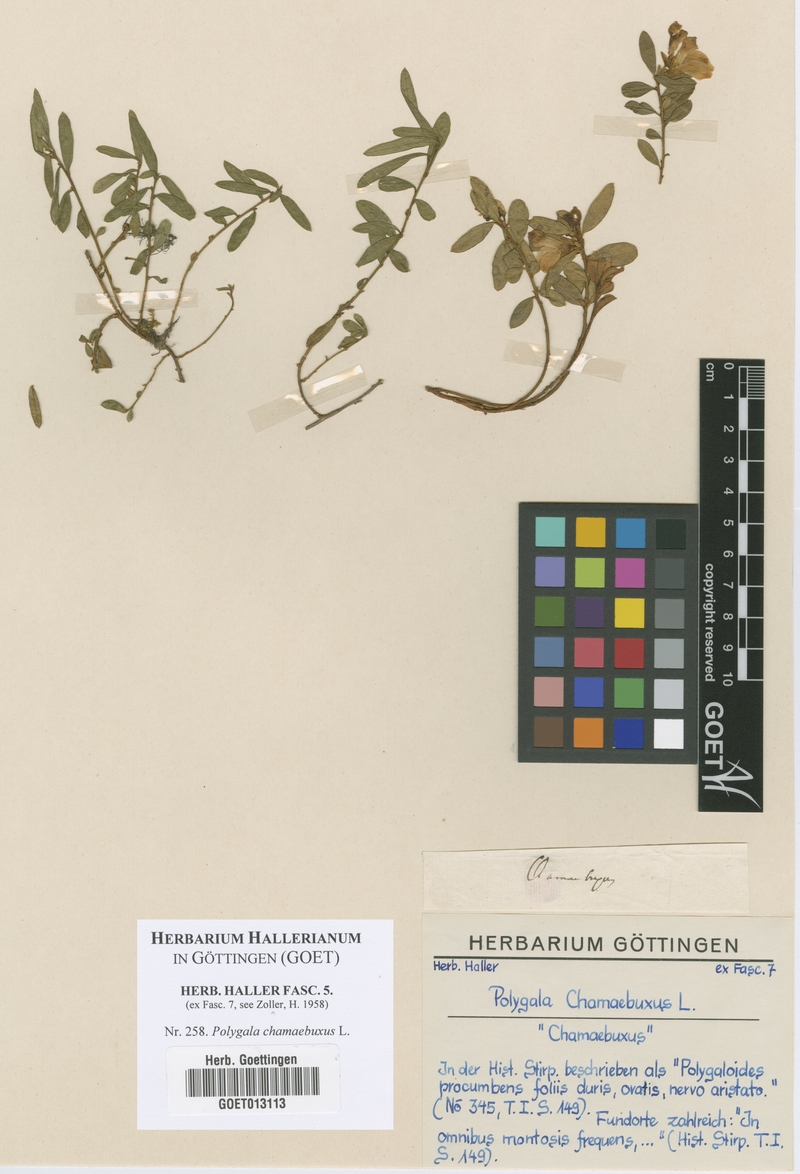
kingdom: Plantae
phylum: Tracheophyta
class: Magnoliopsida
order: Fabales
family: Polygalaceae
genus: Polygaloides
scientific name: Polygaloides chamaebuxus
